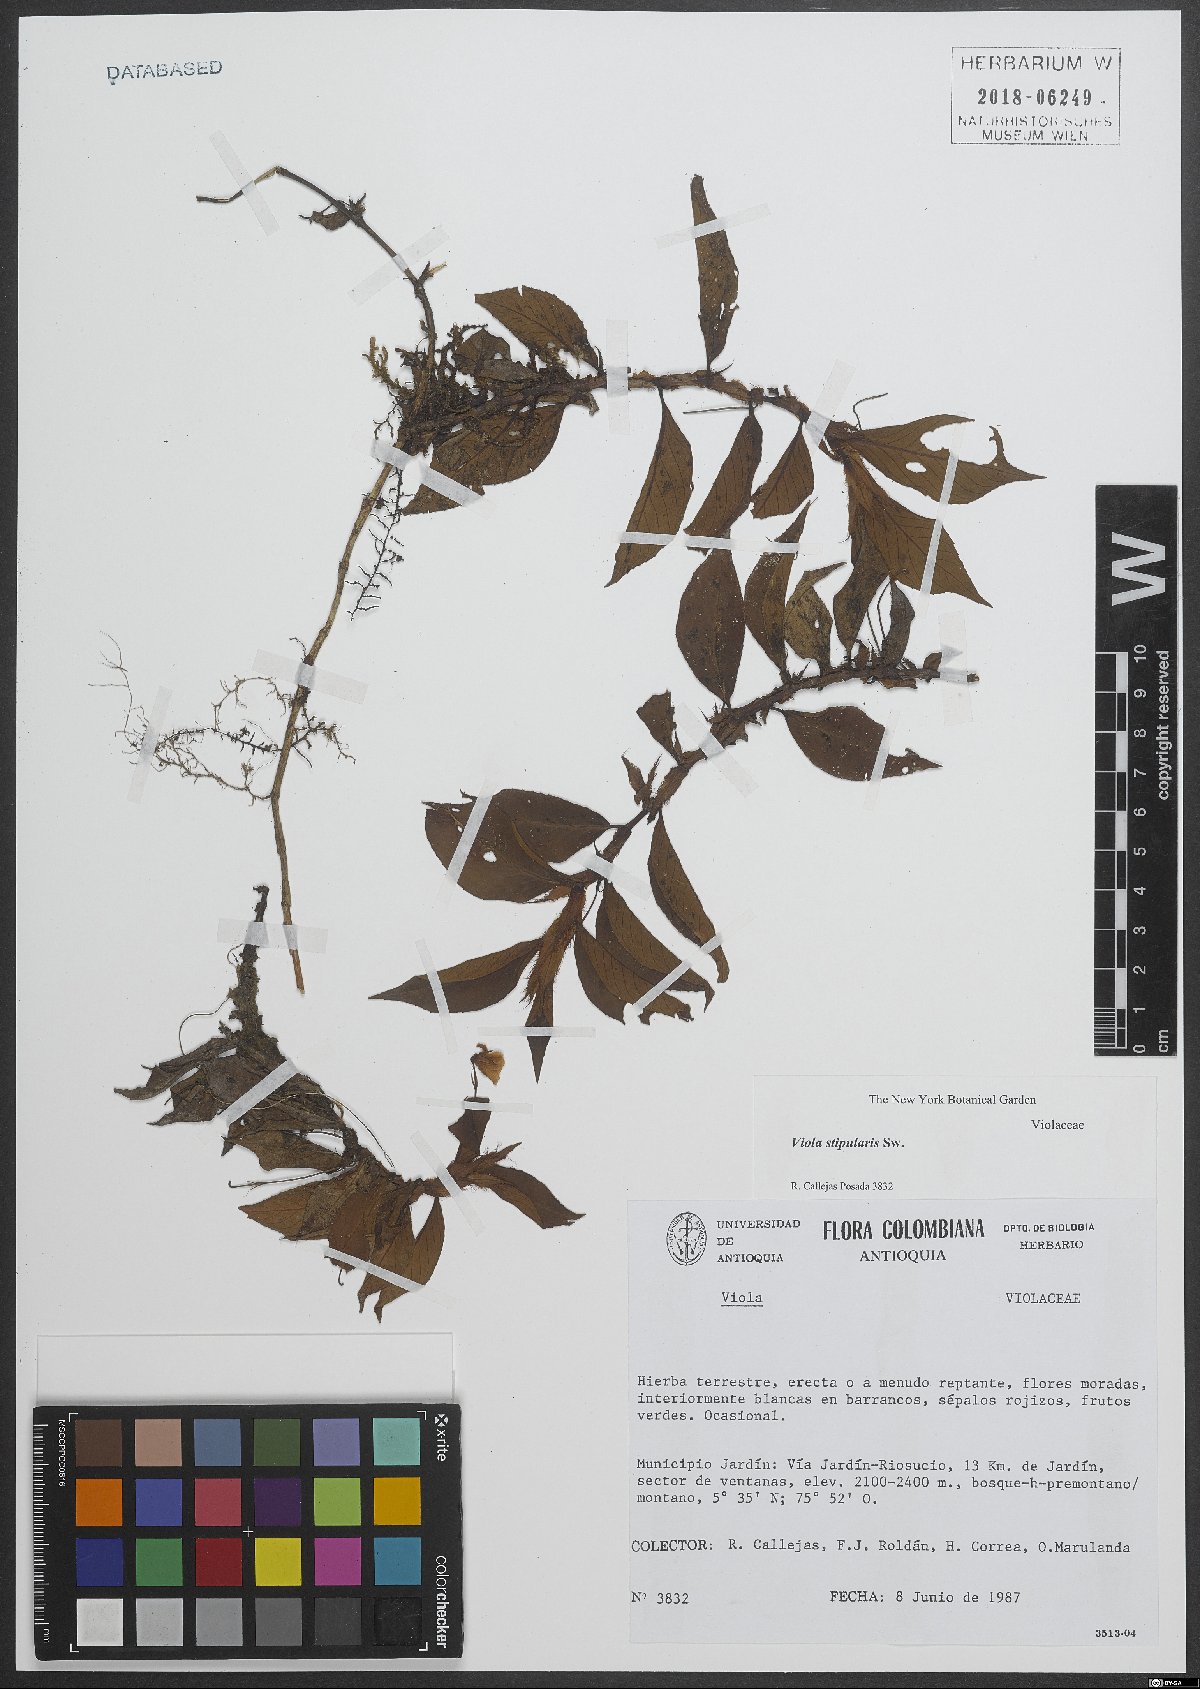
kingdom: Plantae
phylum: Tracheophyta
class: Magnoliopsida
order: Malpighiales
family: Violaceae
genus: Viola
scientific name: Viola stipularis
